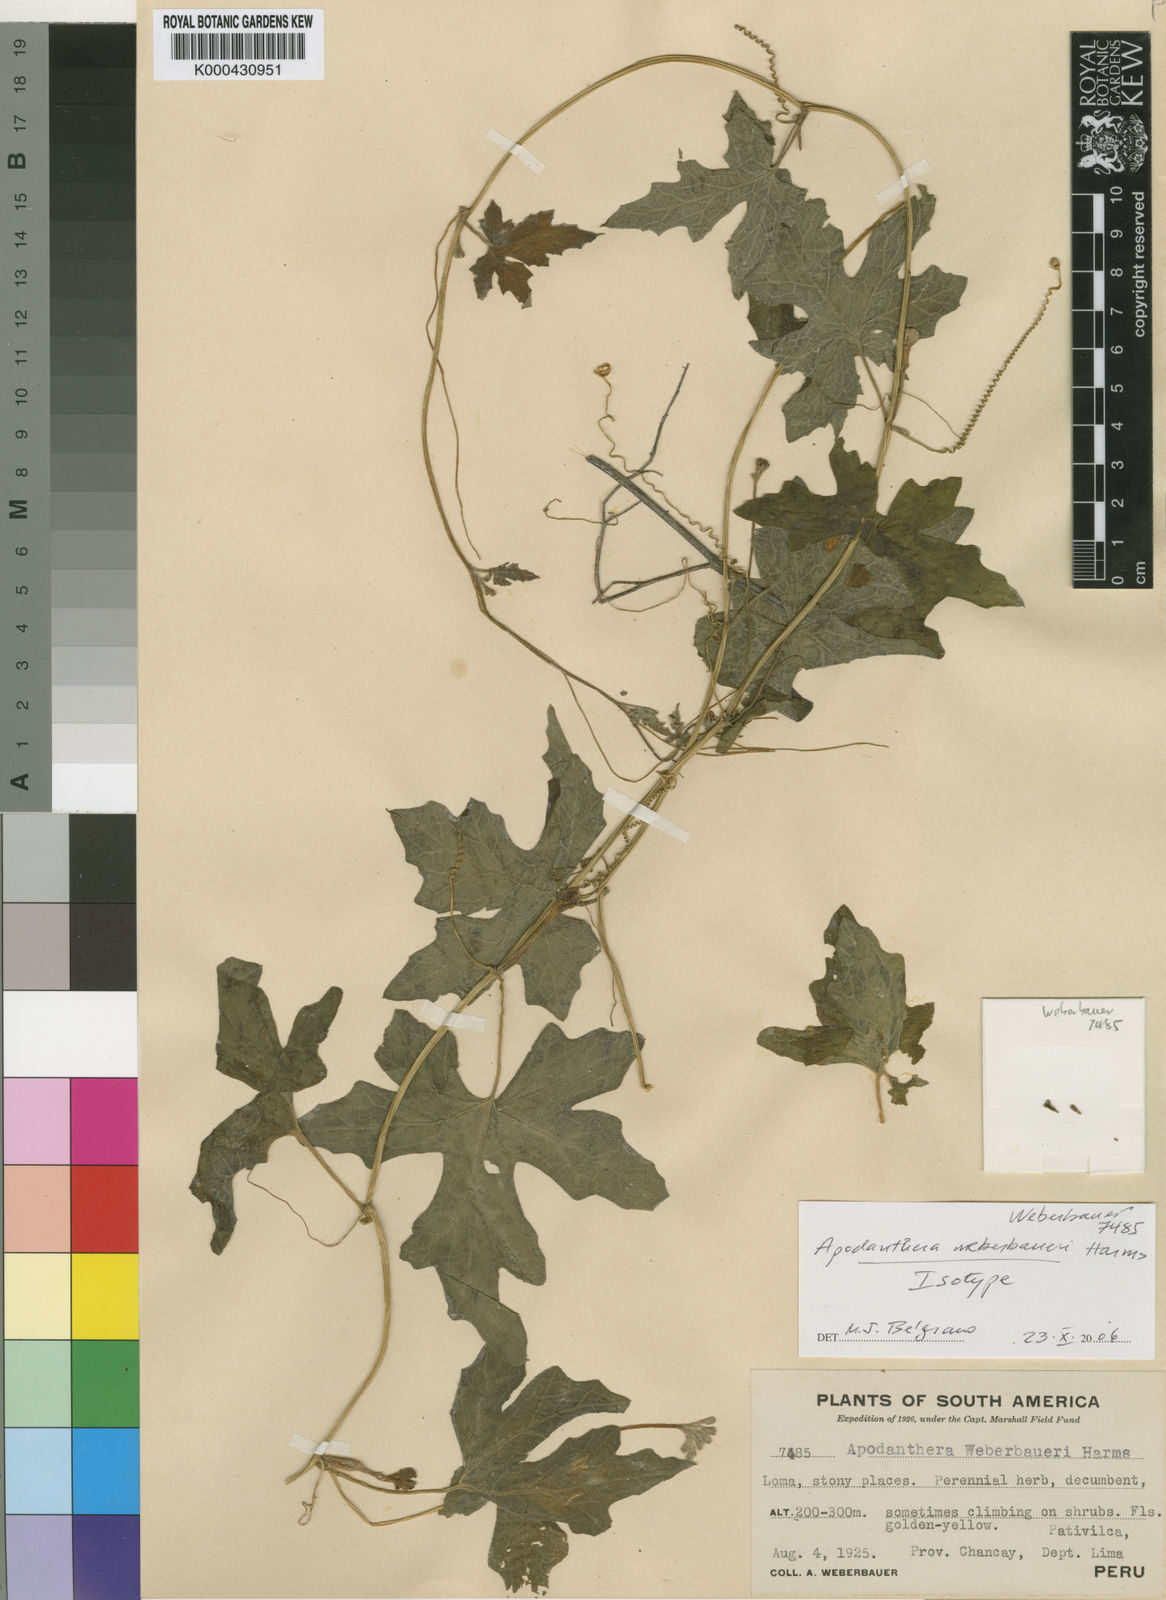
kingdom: Plantae
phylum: Tracheophyta
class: Magnoliopsida
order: Cucurbitales
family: Cucurbitaceae
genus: Apodanthera
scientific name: Apodanthera weberbaueri
